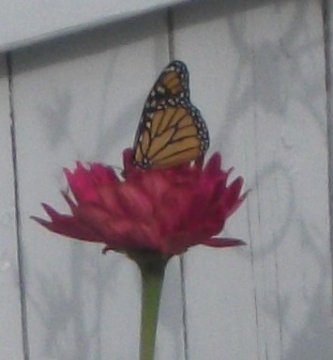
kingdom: Animalia
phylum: Arthropoda
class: Insecta
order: Lepidoptera
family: Nymphalidae
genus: Danaus
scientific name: Danaus plexippus
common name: Monarch
